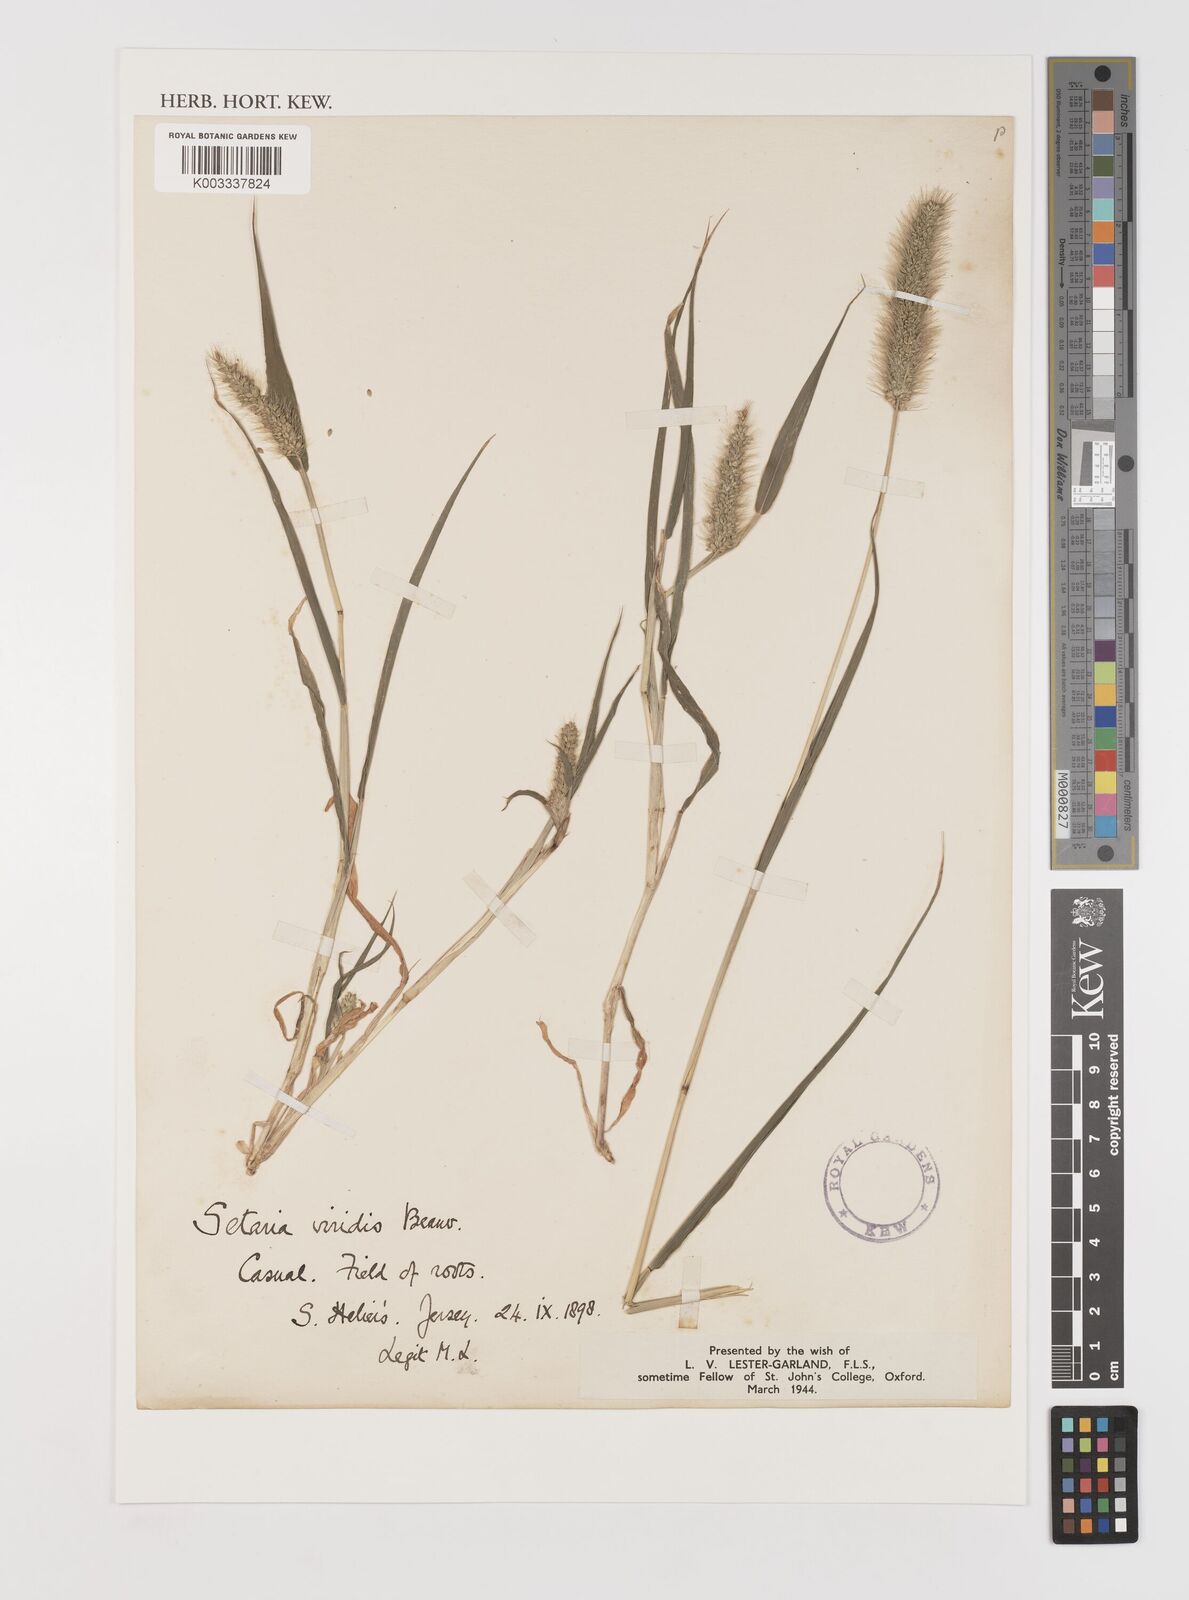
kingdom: Plantae
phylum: Tracheophyta
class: Liliopsida
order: Poales
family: Poaceae
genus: Setaria
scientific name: Setaria viridis
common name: Green bristlegrass
